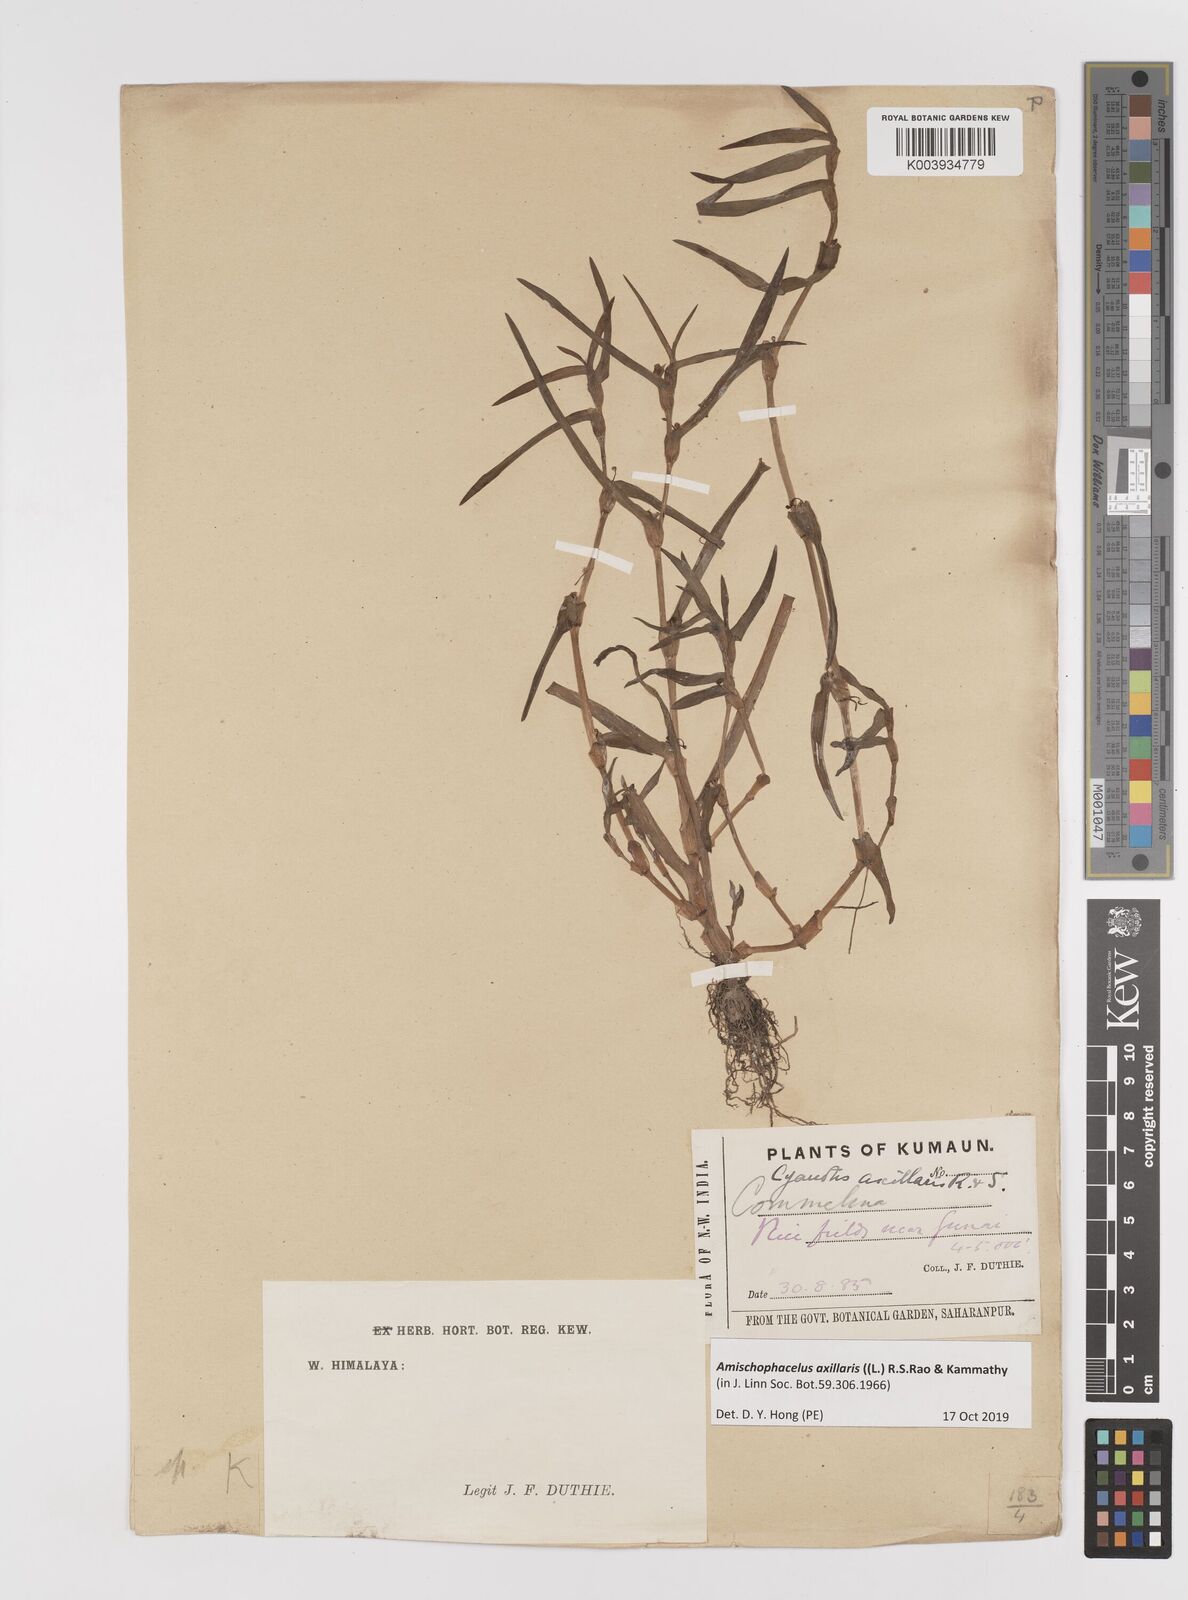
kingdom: Plantae
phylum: Tracheophyta
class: Liliopsida
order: Commelinales
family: Commelinaceae
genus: Cyanotis
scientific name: Cyanotis axillaris
